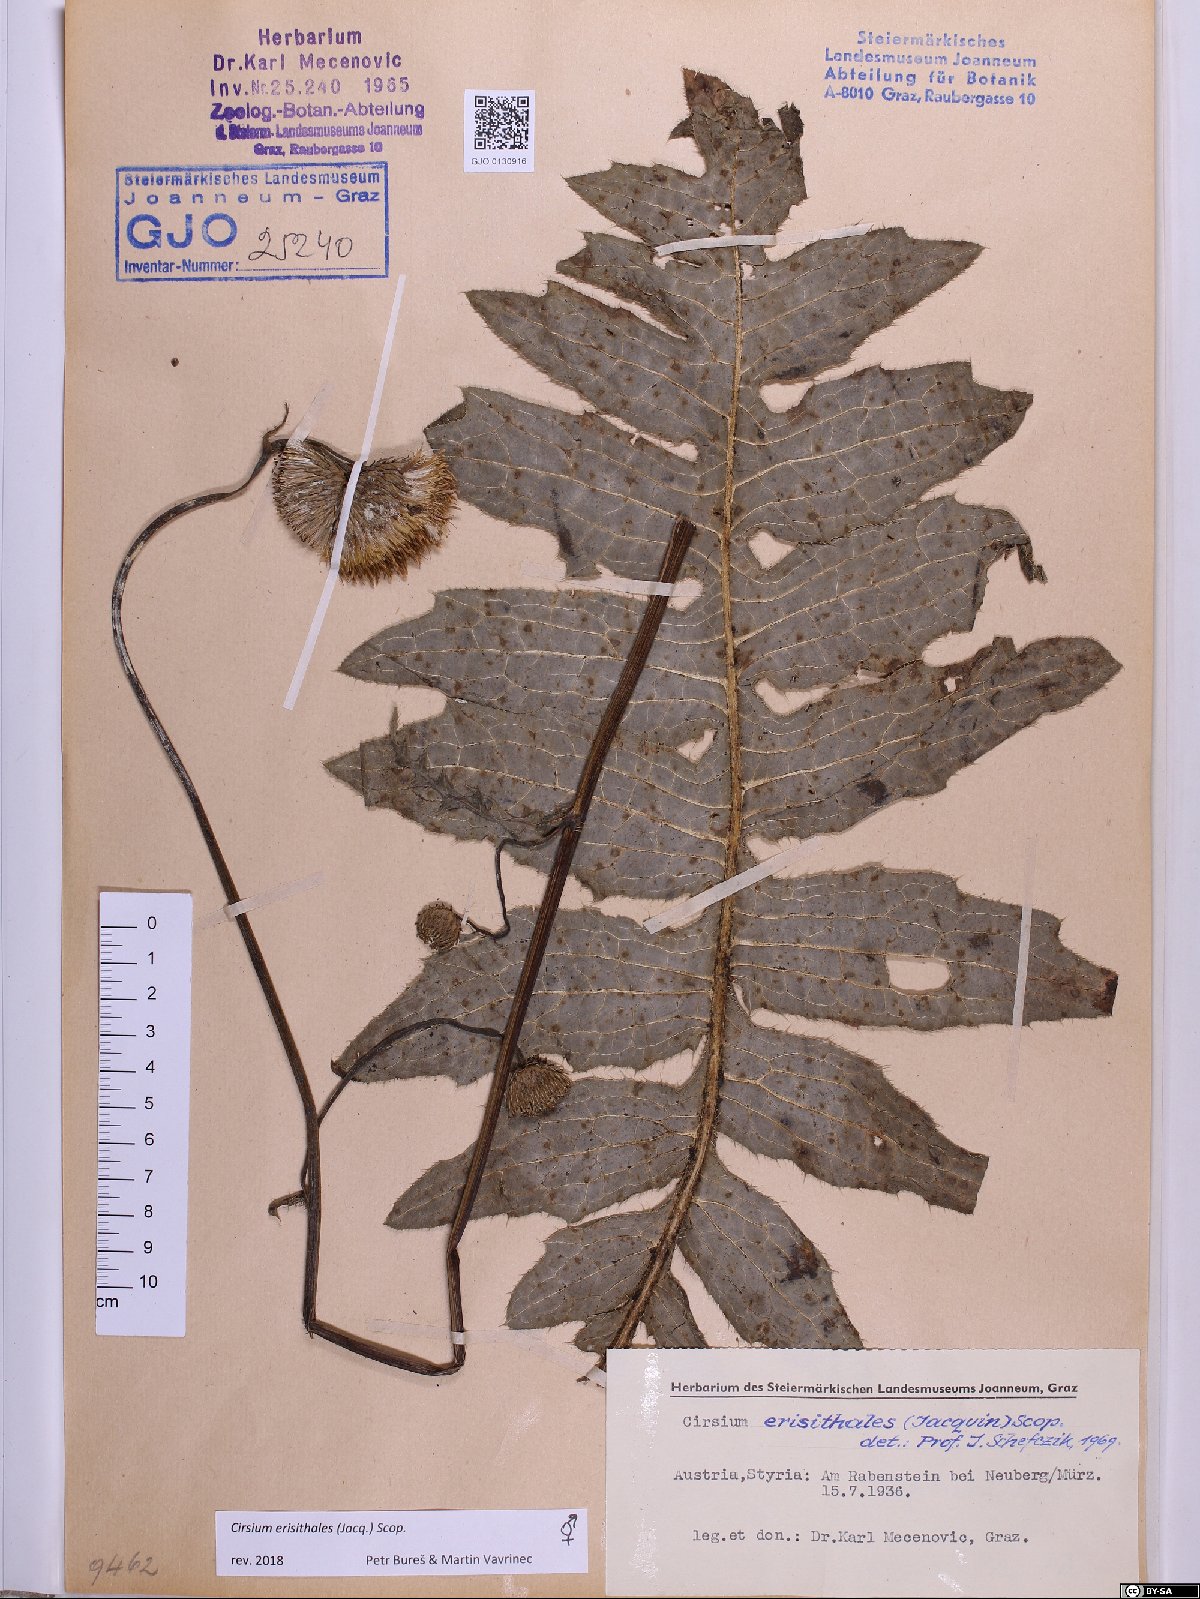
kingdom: Plantae
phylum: Tracheophyta
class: Magnoliopsida
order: Asterales
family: Asteraceae
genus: Cirsium
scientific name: Cirsium erisithales
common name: Yellow thistle
